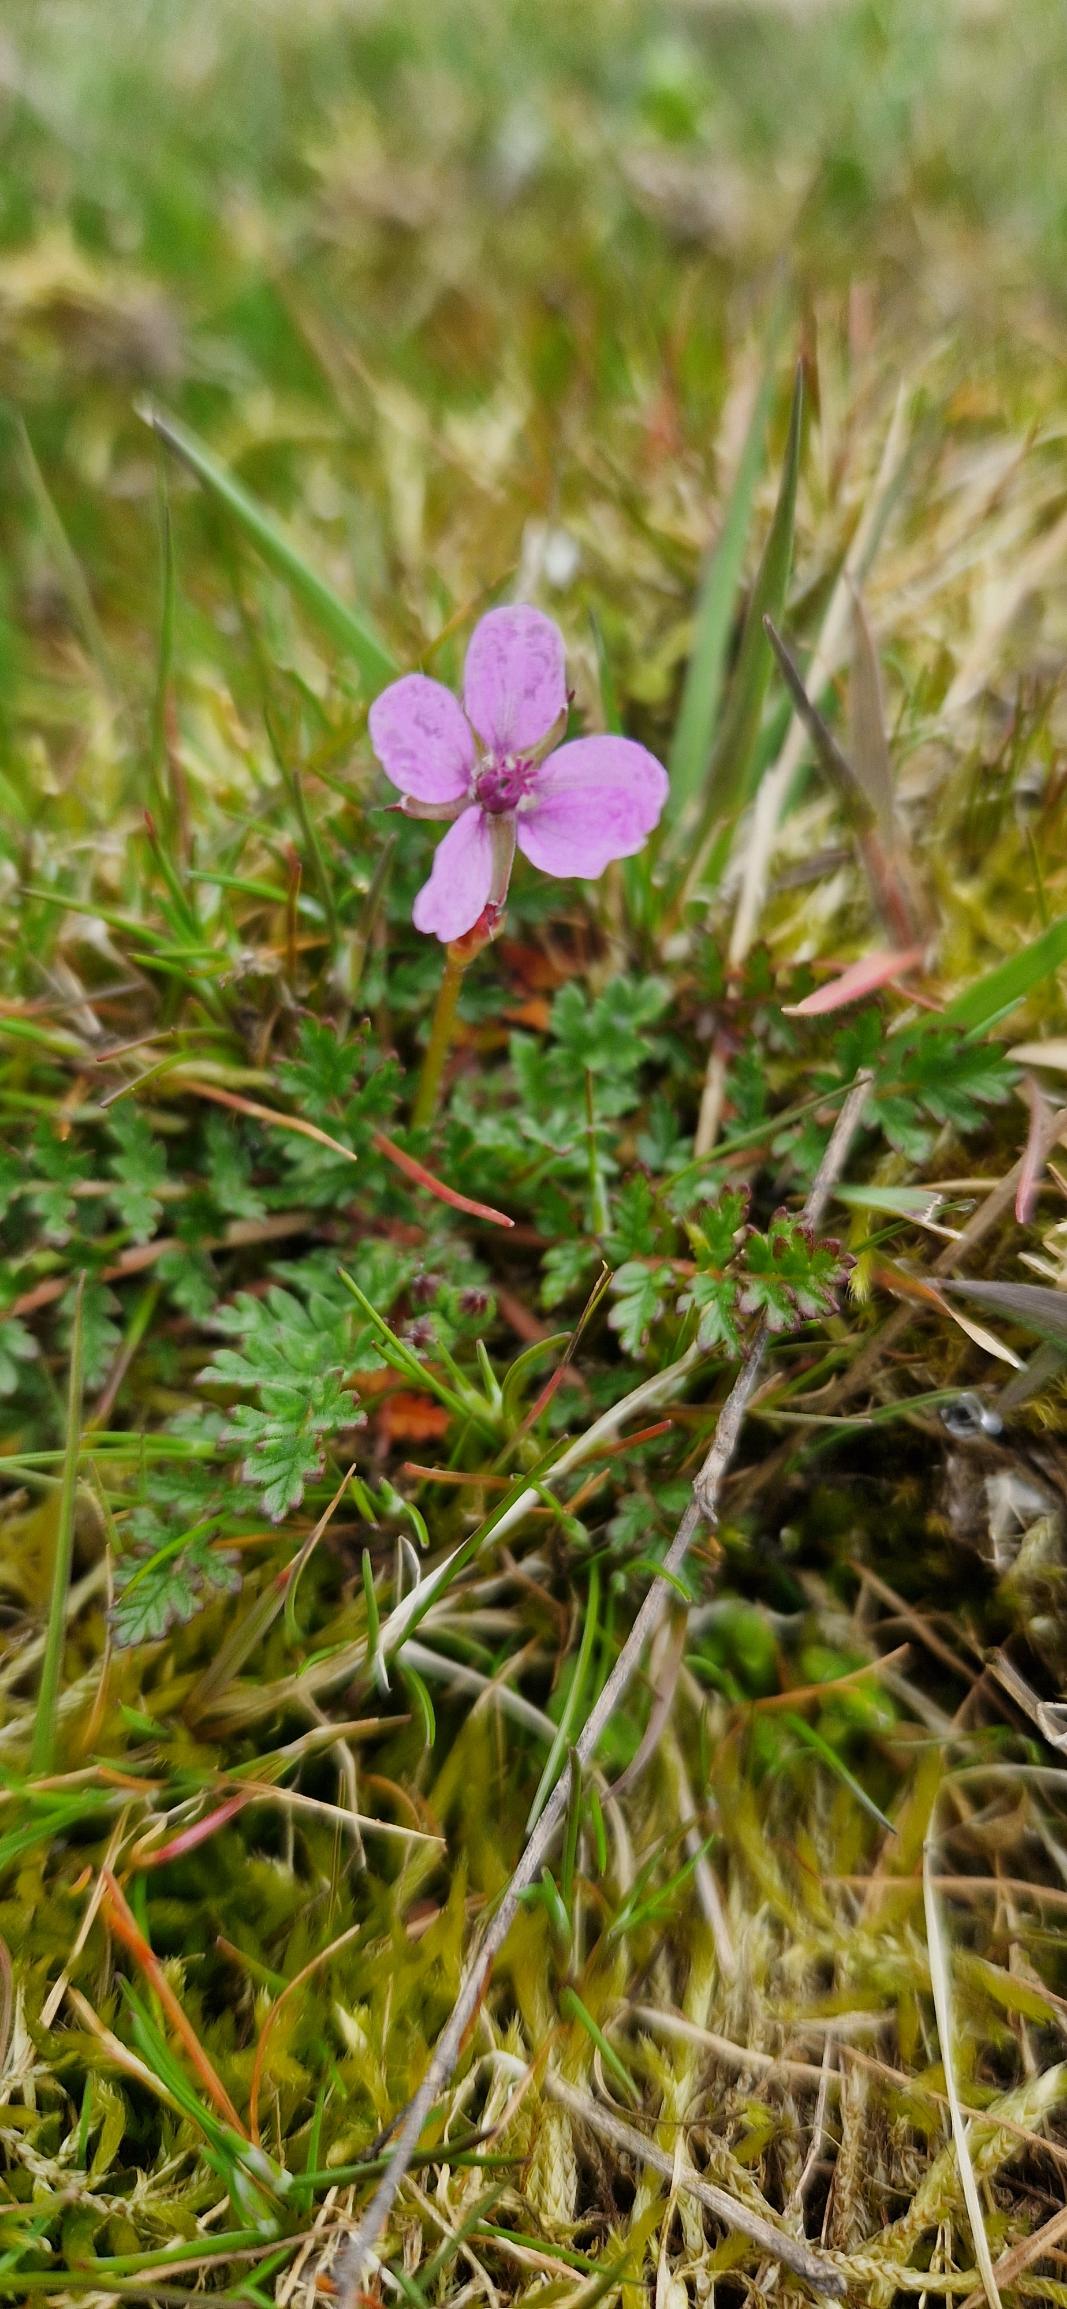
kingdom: Plantae
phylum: Tracheophyta
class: Magnoliopsida
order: Geraniales
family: Geraniaceae
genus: Erodium
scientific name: Erodium cicutarium
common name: Hejrenæb
